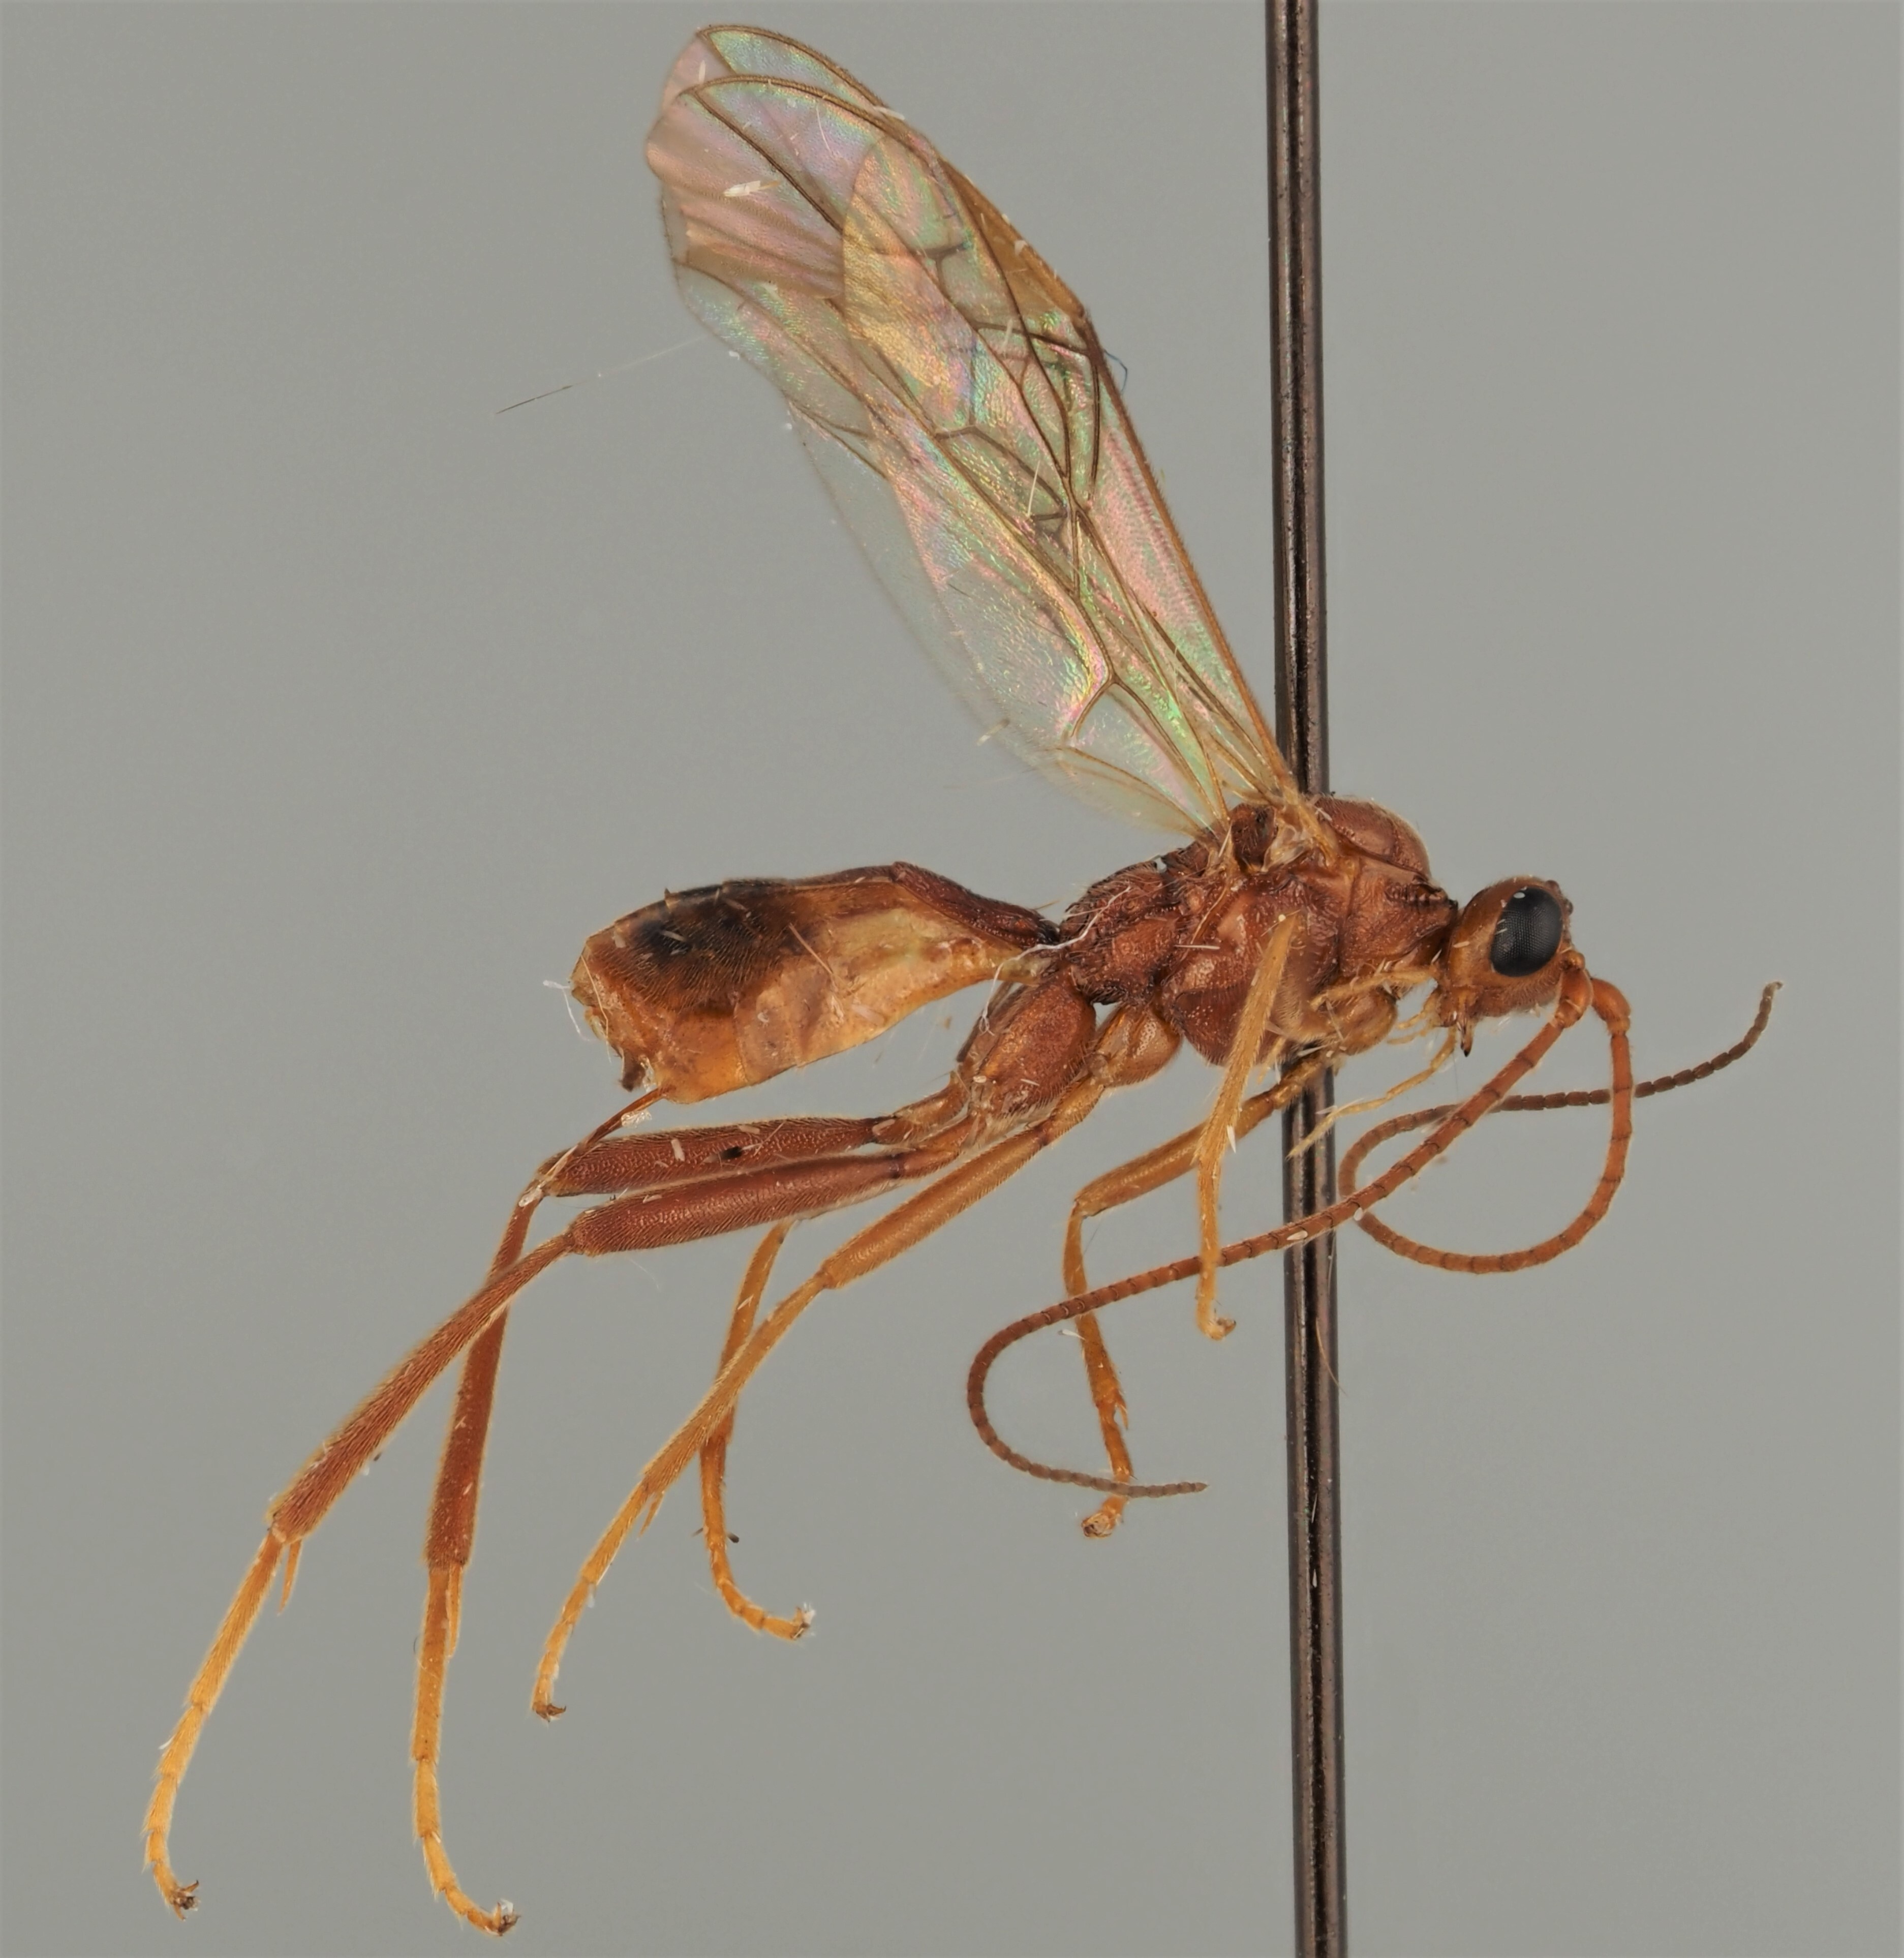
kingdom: Animalia
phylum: Arthropoda
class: Insecta
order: Hymenoptera
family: Braconidae
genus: Homolobus
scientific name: Homolobus bohemani
